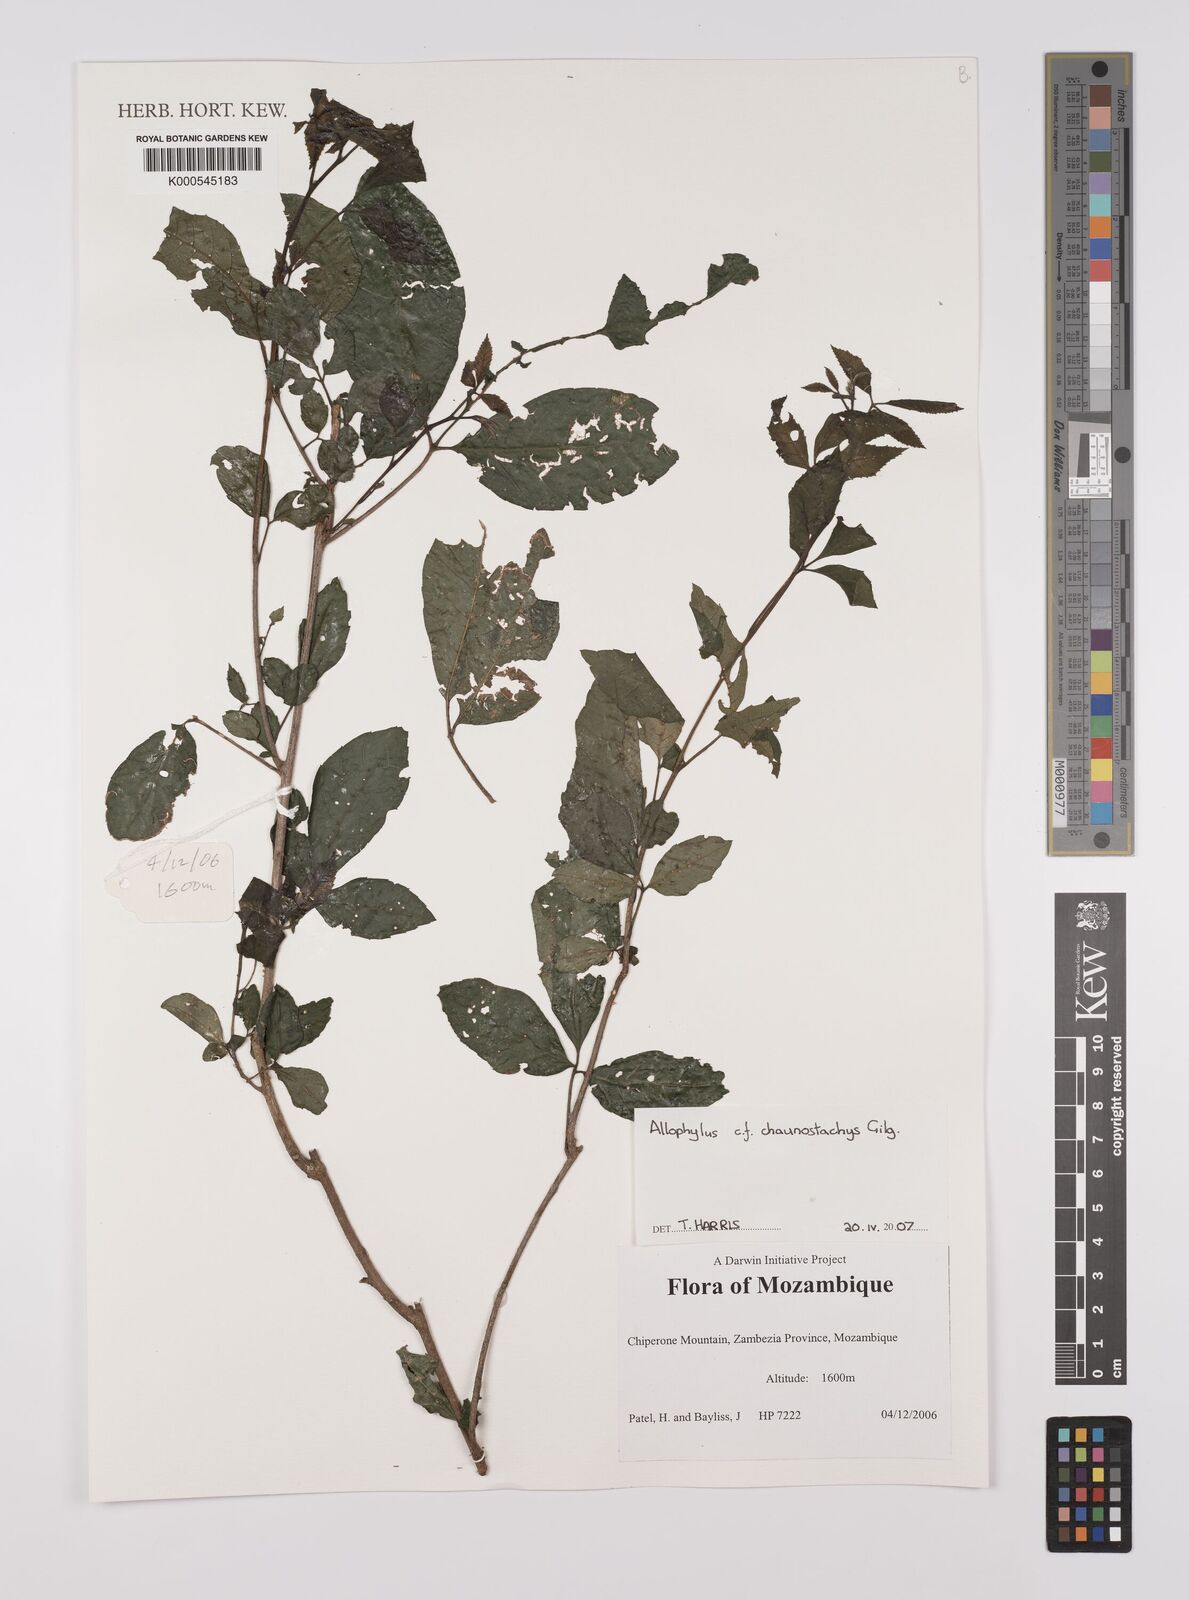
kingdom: Plantae
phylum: Tracheophyta
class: Magnoliopsida
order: Sapindales
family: Sapindaceae
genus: Allophylus
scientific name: Allophylus chaunostachys
